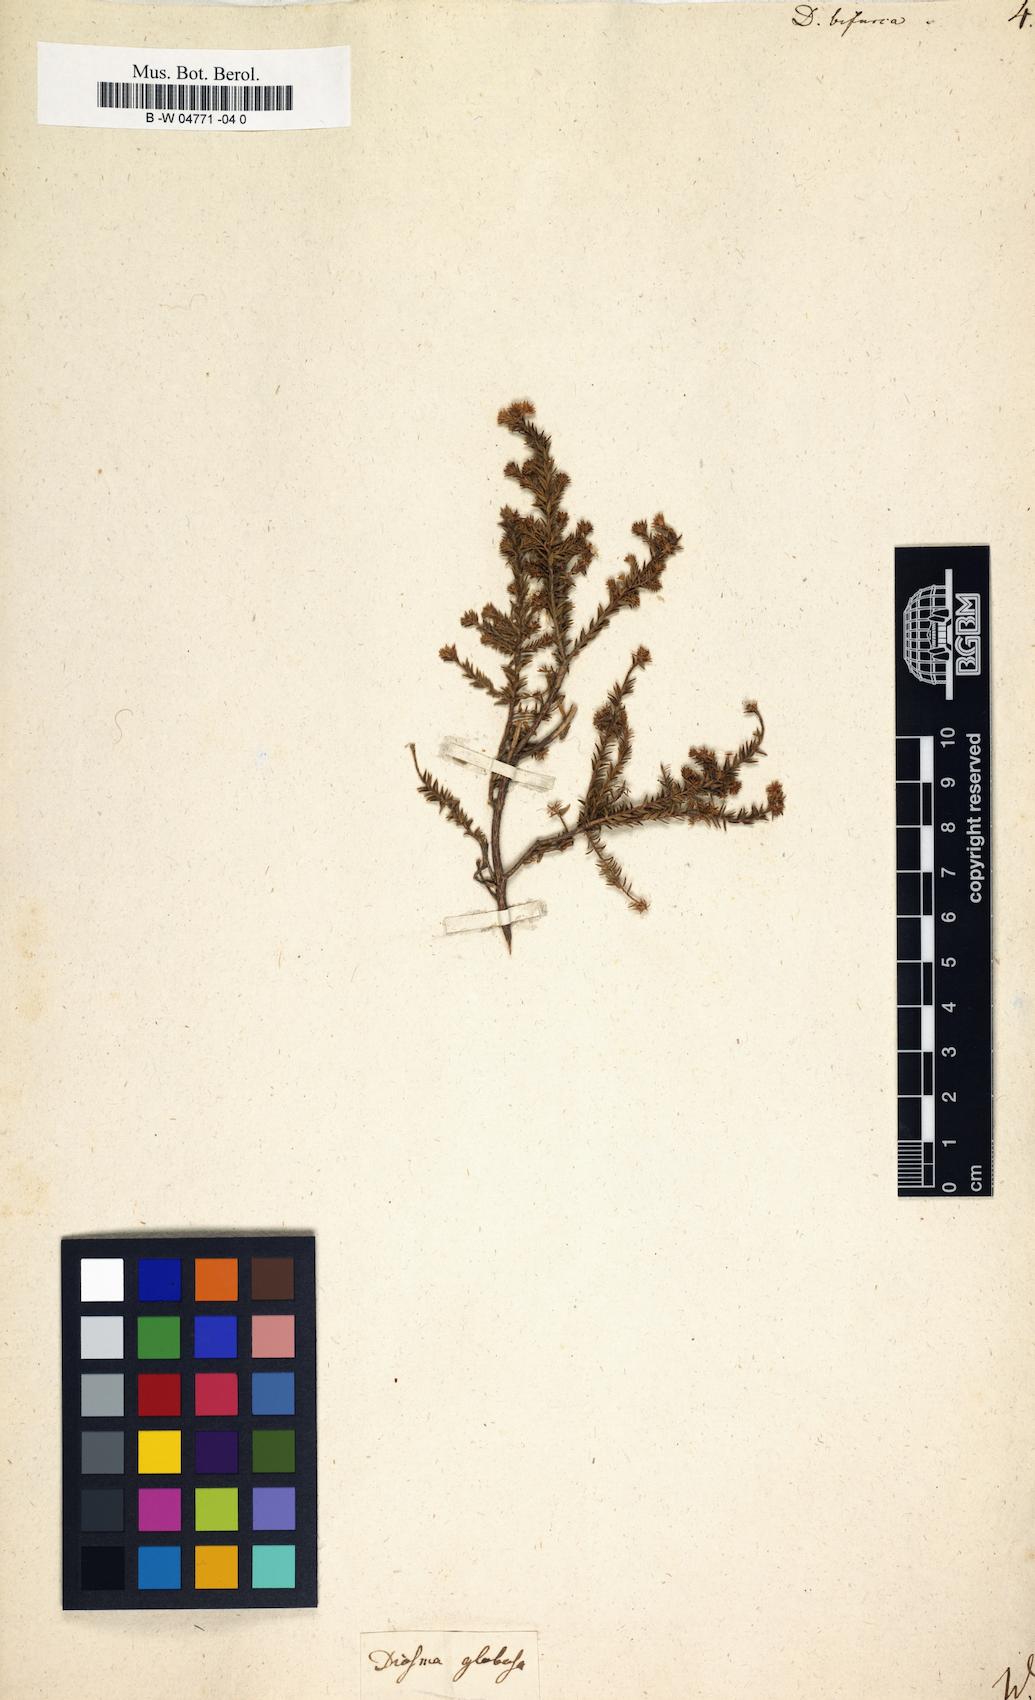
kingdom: Plantae
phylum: Tracheophyta
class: Magnoliopsida
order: Sapindales
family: Rutaceae
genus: Agathosma
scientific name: Agathosma bisulca
